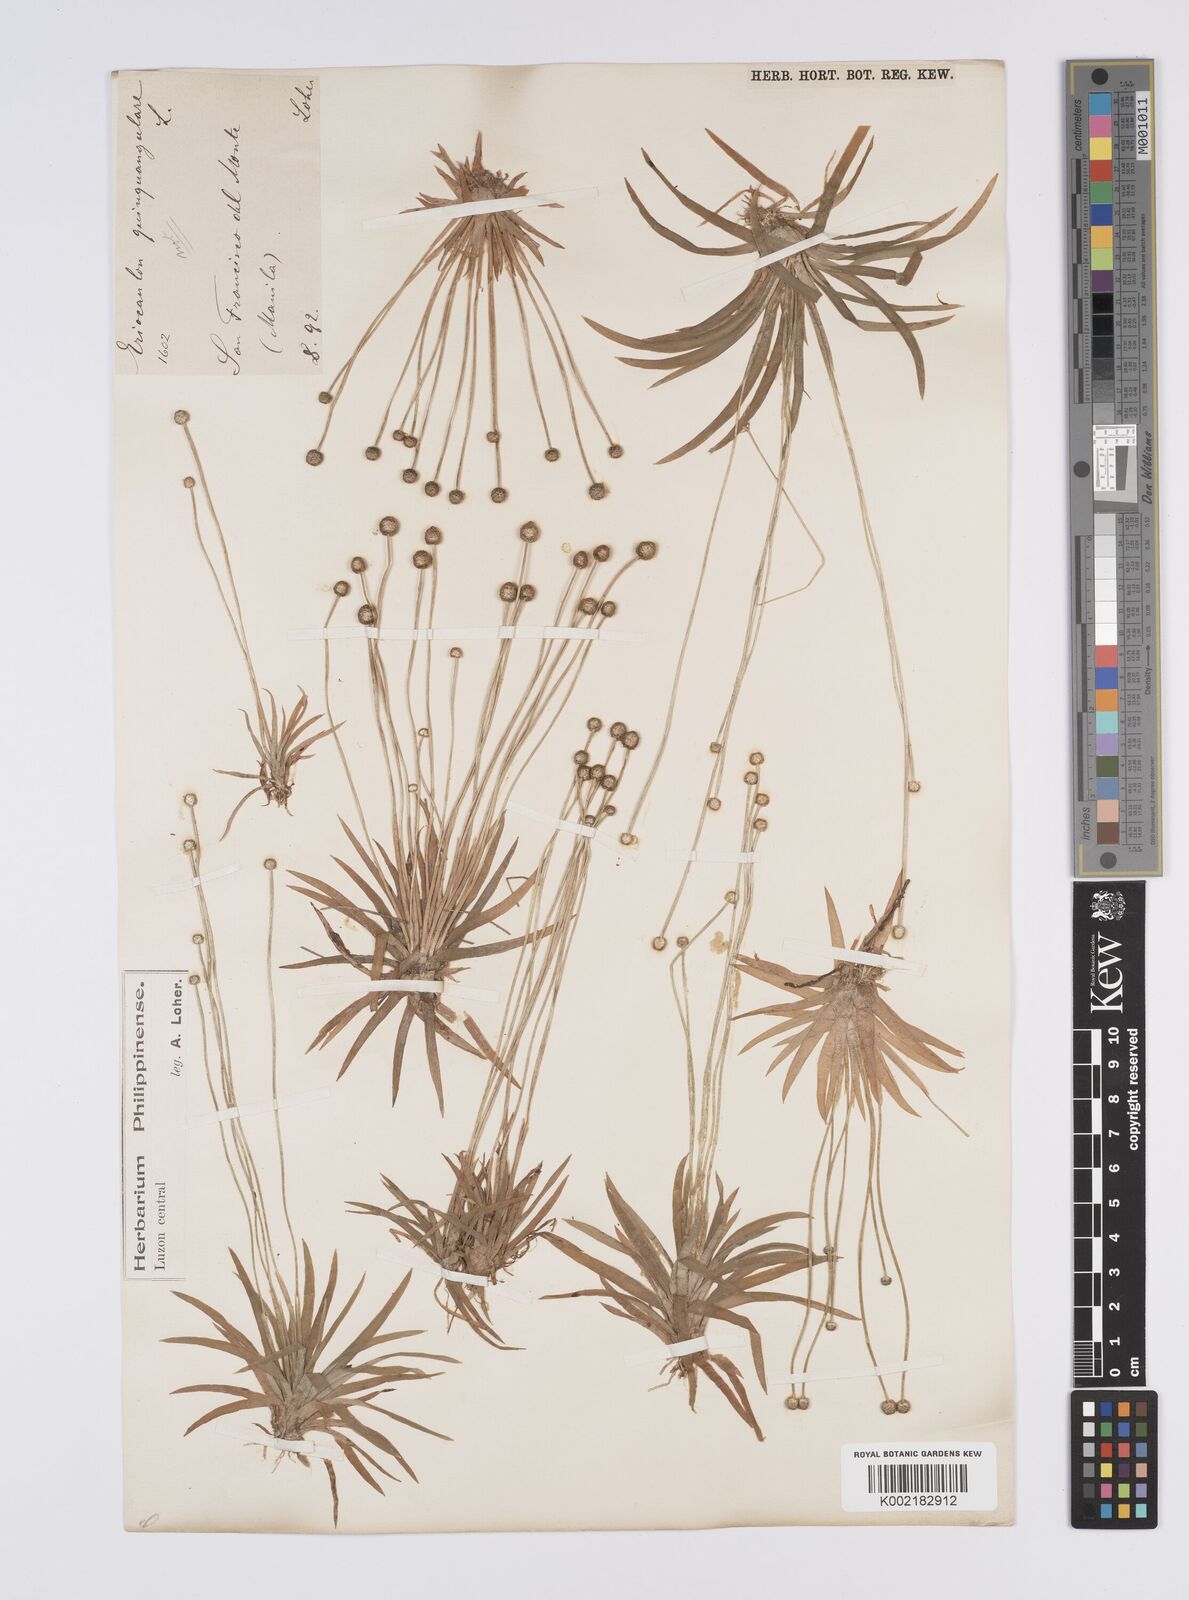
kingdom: Plantae
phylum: Tracheophyta
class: Liliopsida
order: Poales
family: Eriocaulaceae
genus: Eriocaulon
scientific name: Eriocaulon zollingerianum
